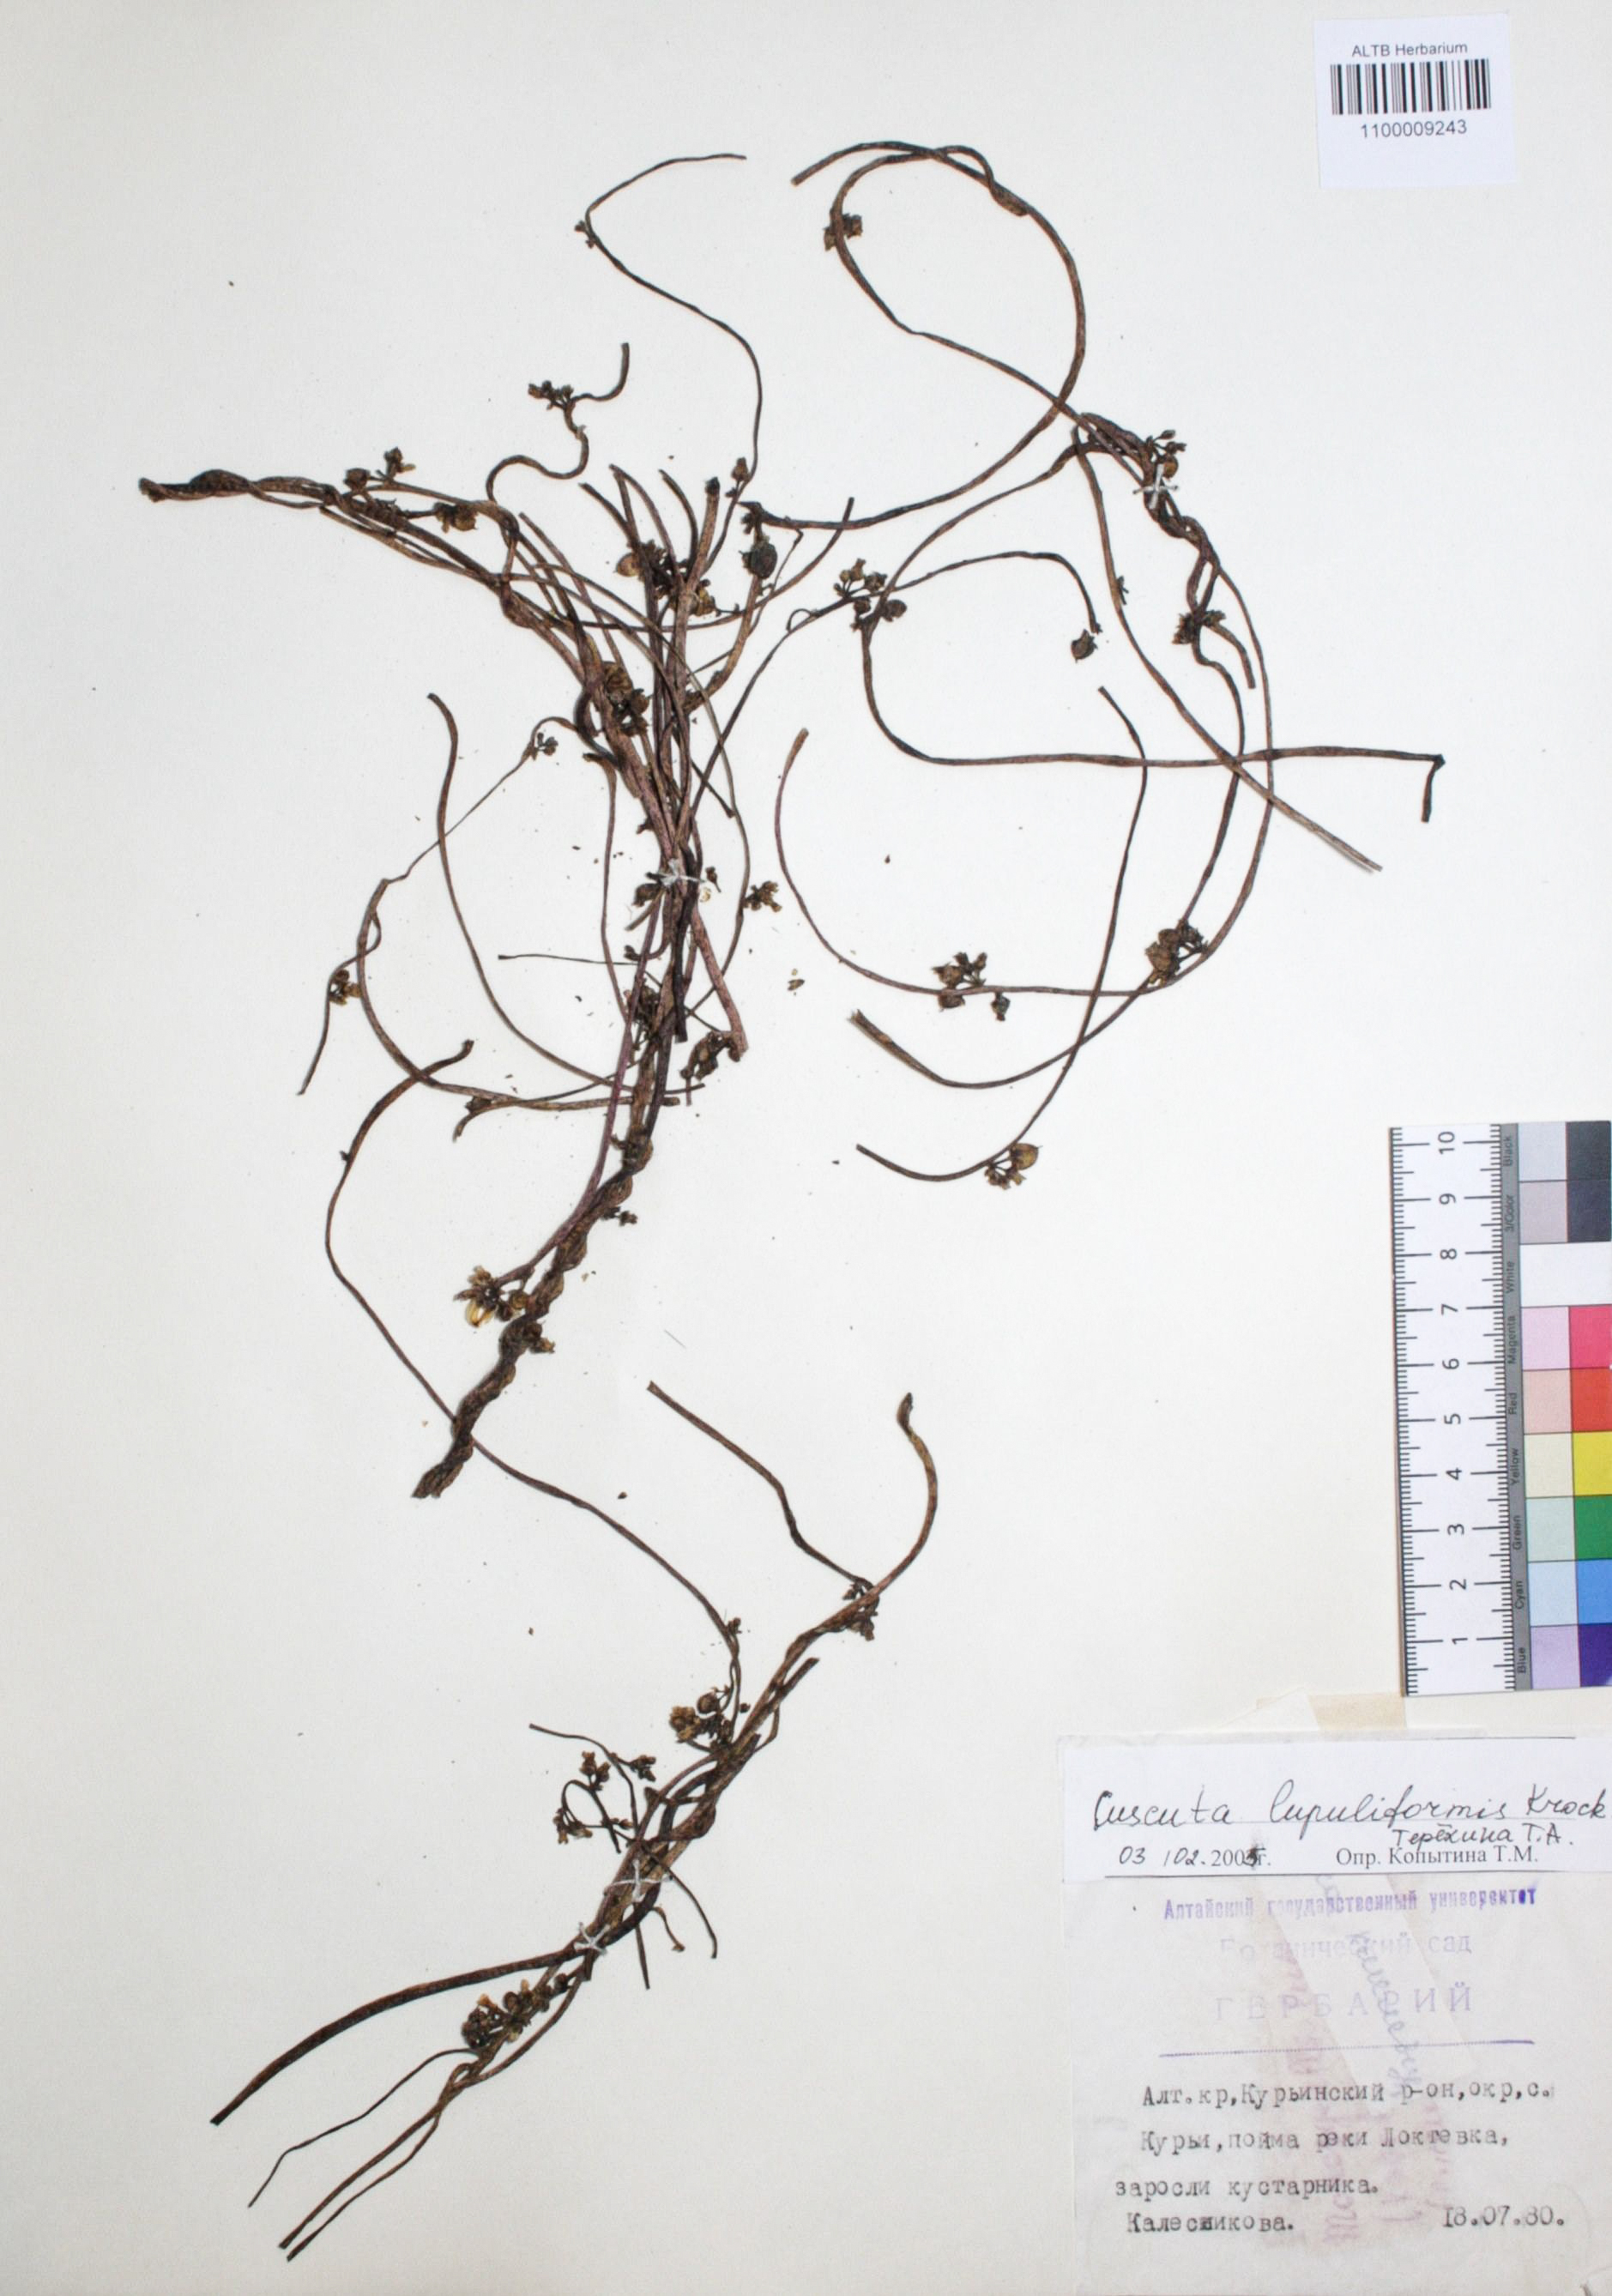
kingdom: Plantae
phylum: Tracheophyta
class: Magnoliopsida
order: Solanales
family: Convolvulaceae
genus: Cuscuta
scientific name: Cuscuta lupuliformis
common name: Hop dodder
